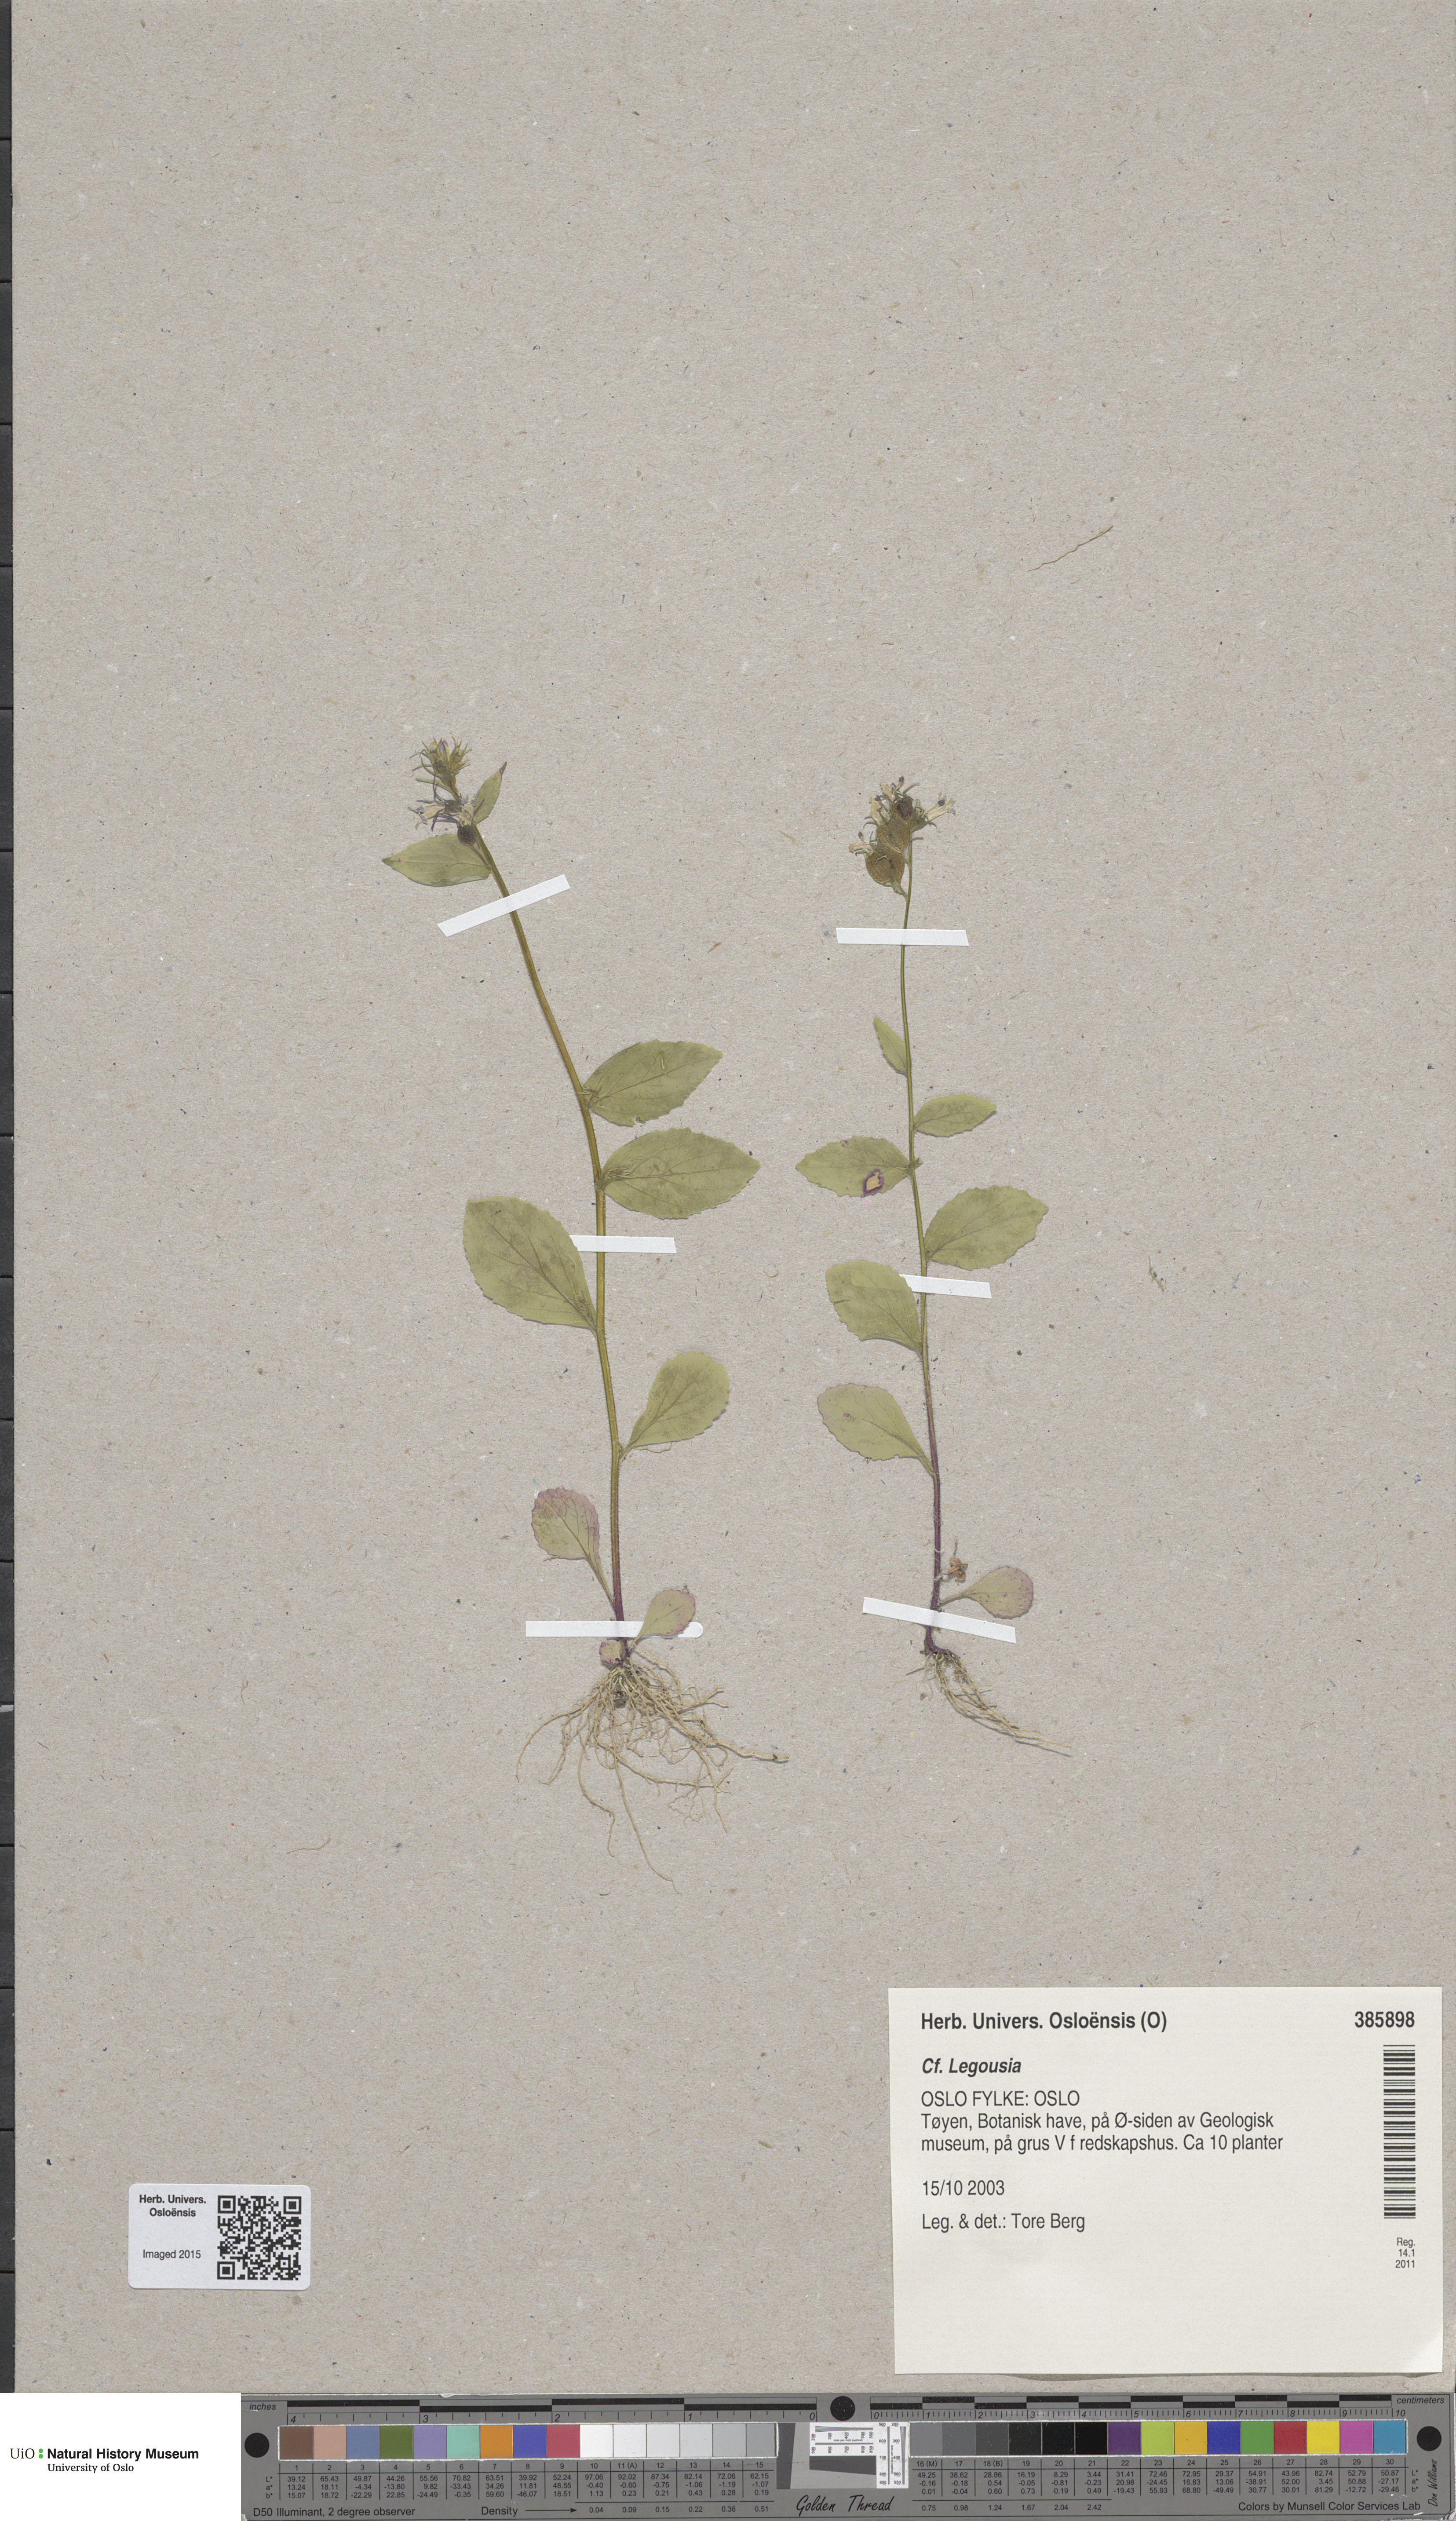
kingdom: Plantae
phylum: Tracheophyta
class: Magnoliopsida
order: Asterales
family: Campanulaceae
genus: Legousia
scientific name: Legousia hybrida
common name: Venus's-looking-glass
